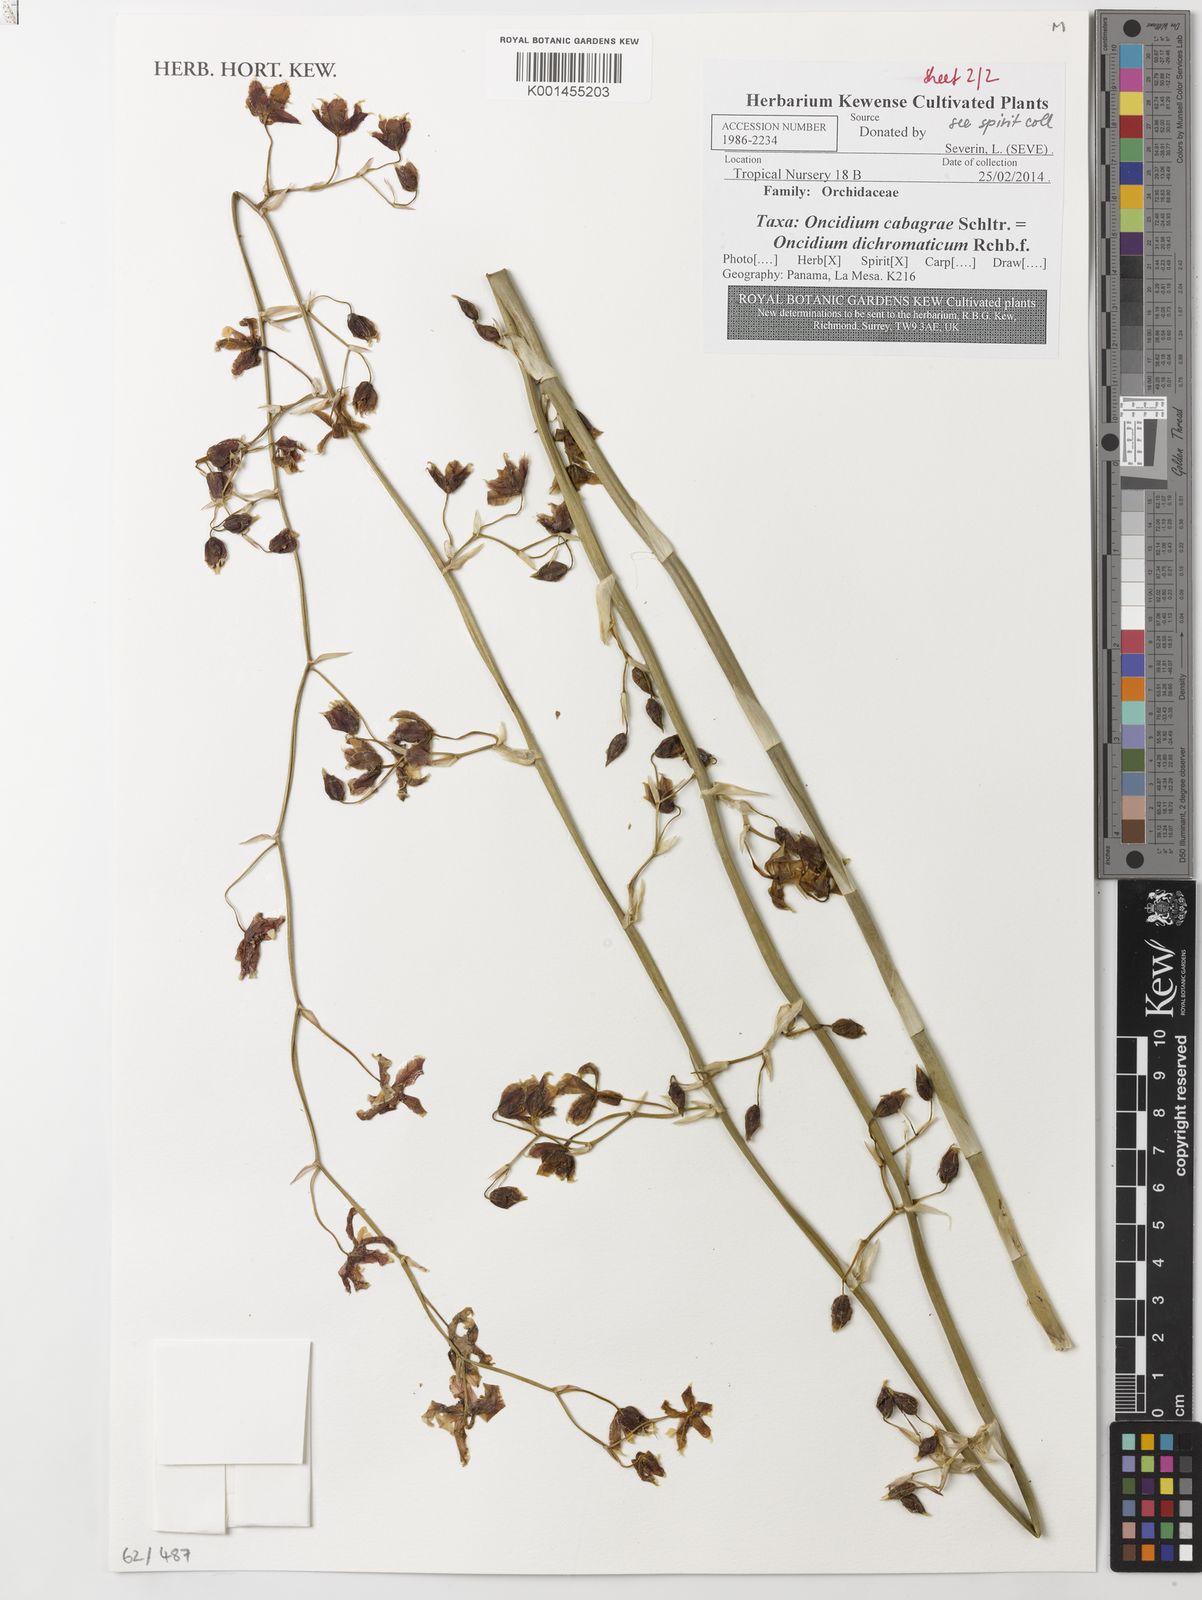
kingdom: Plantae
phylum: Tracheophyta
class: Liliopsida
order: Asparagales
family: Orchidaceae
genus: Oncidium
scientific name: Oncidium dichromaticum
